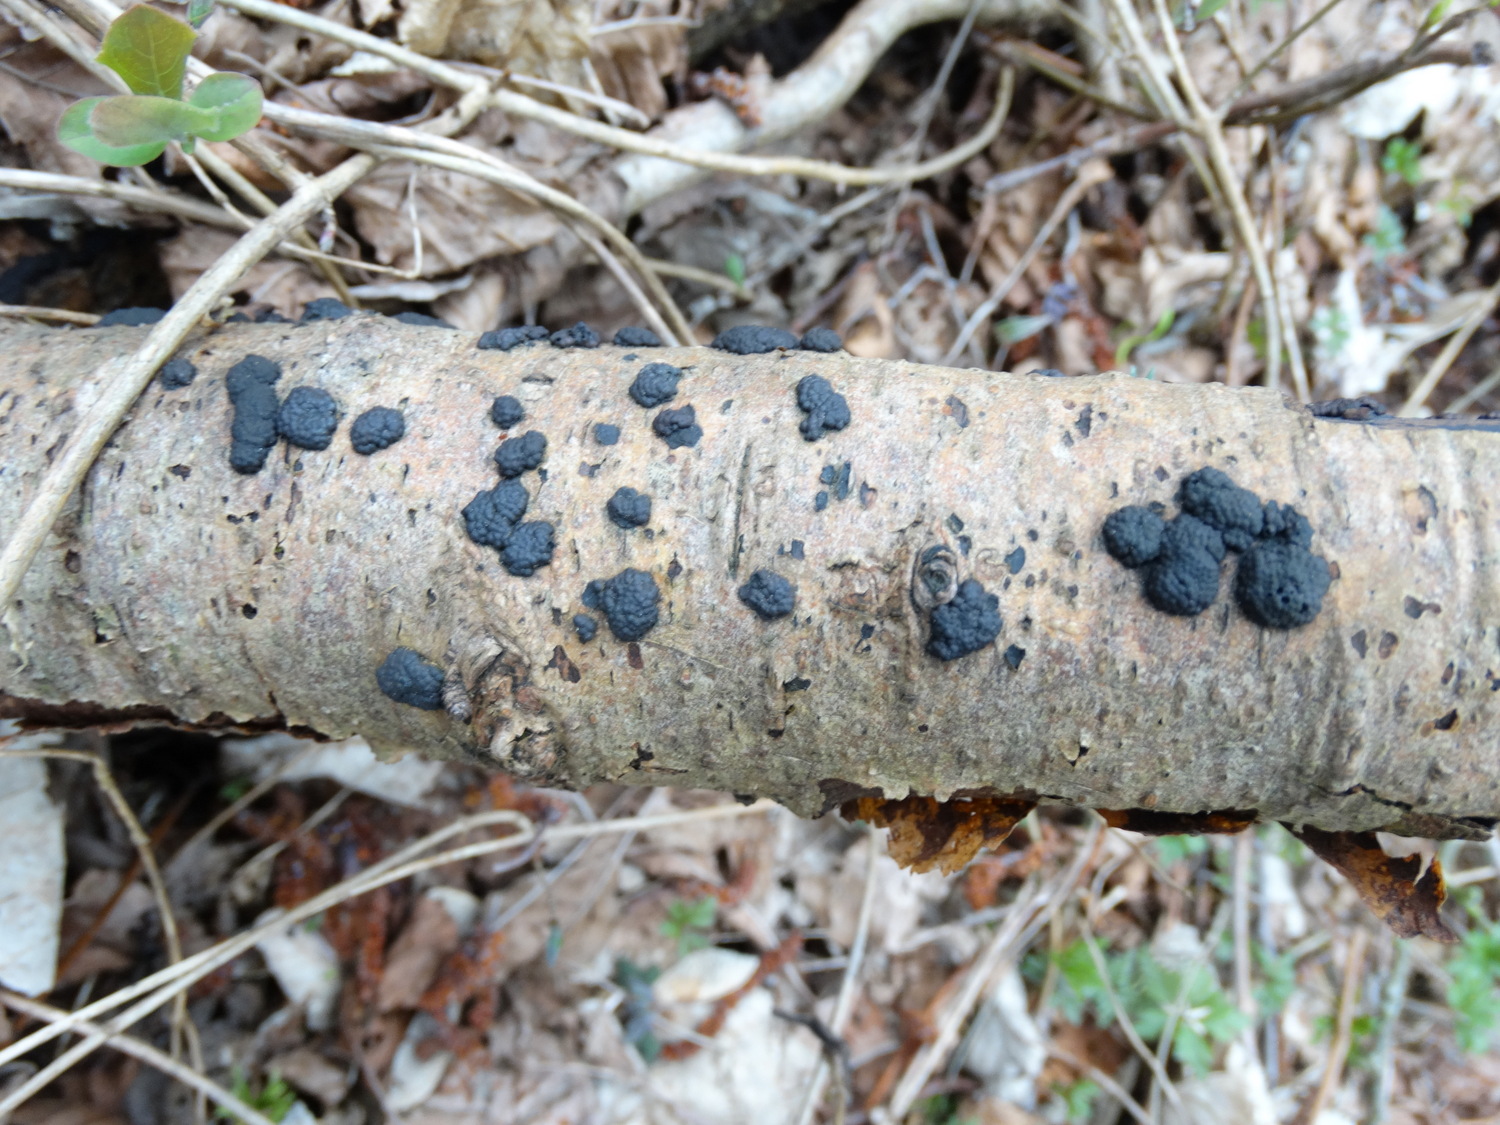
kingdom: Fungi
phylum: Ascomycota
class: Sordariomycetes
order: Xylariales
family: Hypoxylaceae
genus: Jackrogersella
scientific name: Jackrogersella multiformis
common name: foranderlig kulbær
